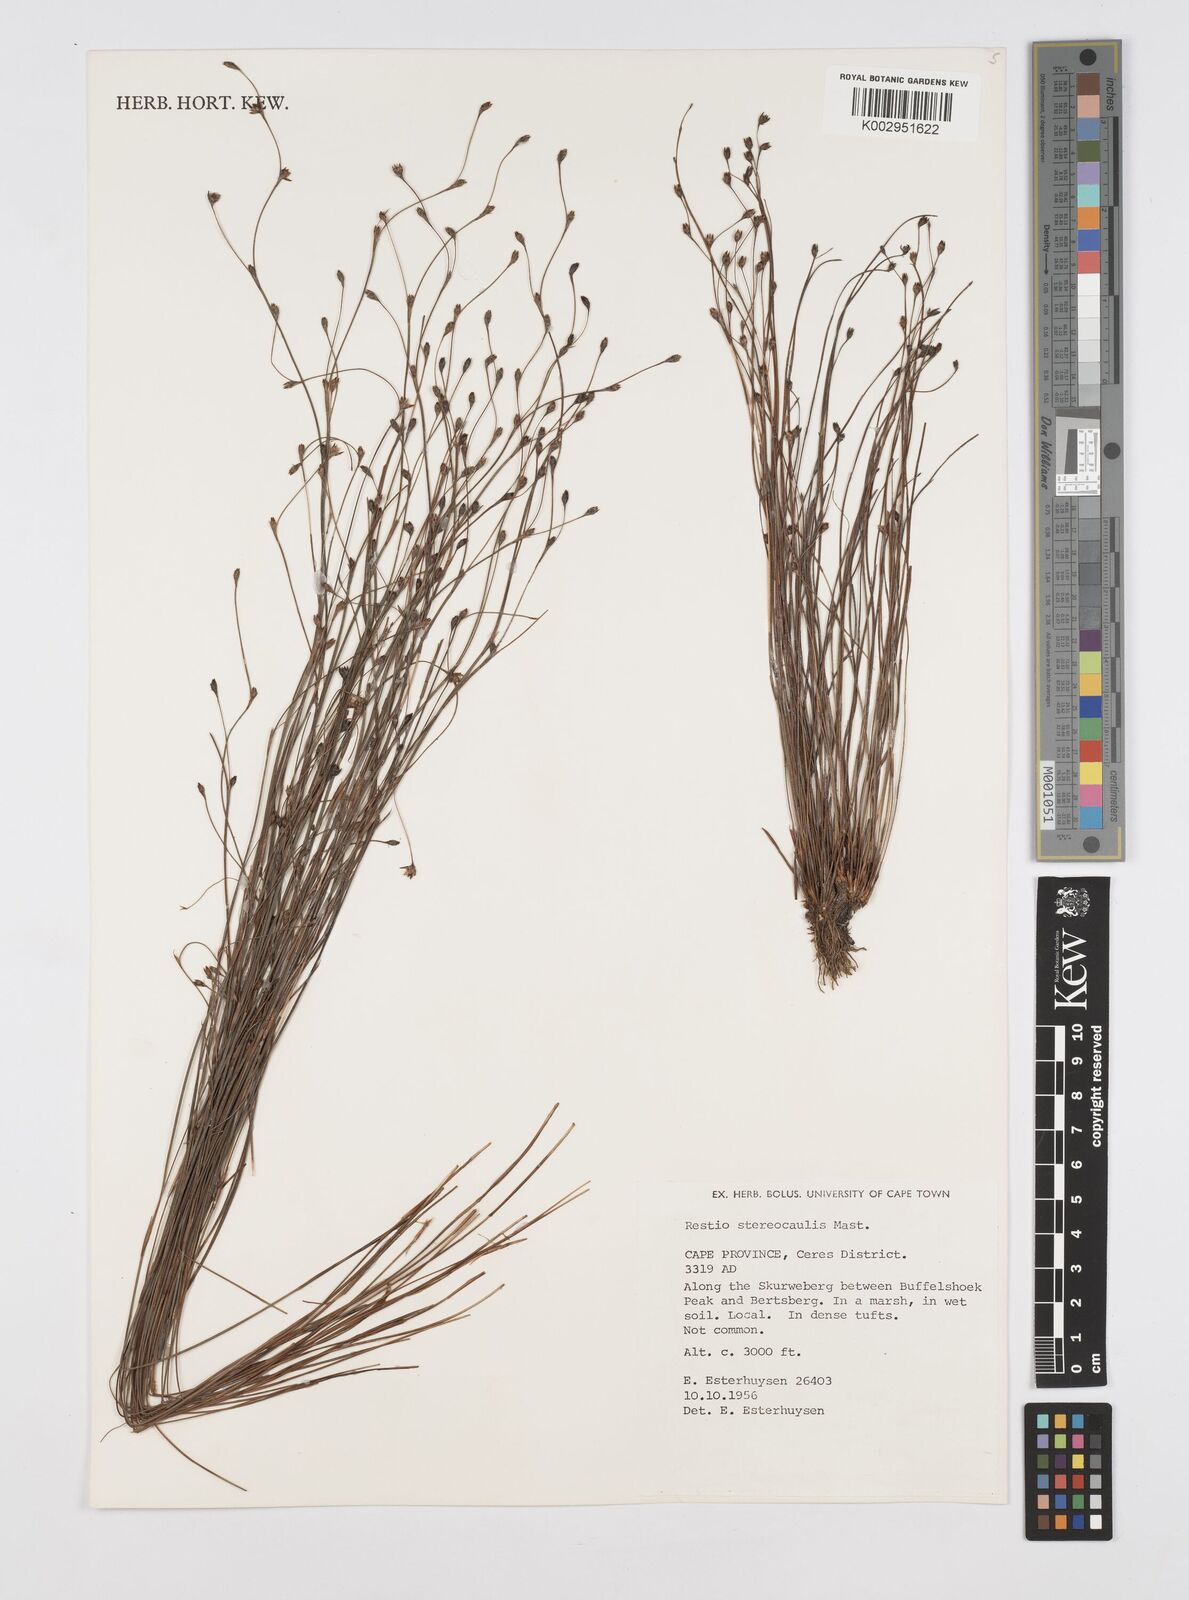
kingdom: Plantae
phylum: Tracheophyta
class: Liliopsida
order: Poales
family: Restionaceae
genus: Restio
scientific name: Restio stereocaulis
